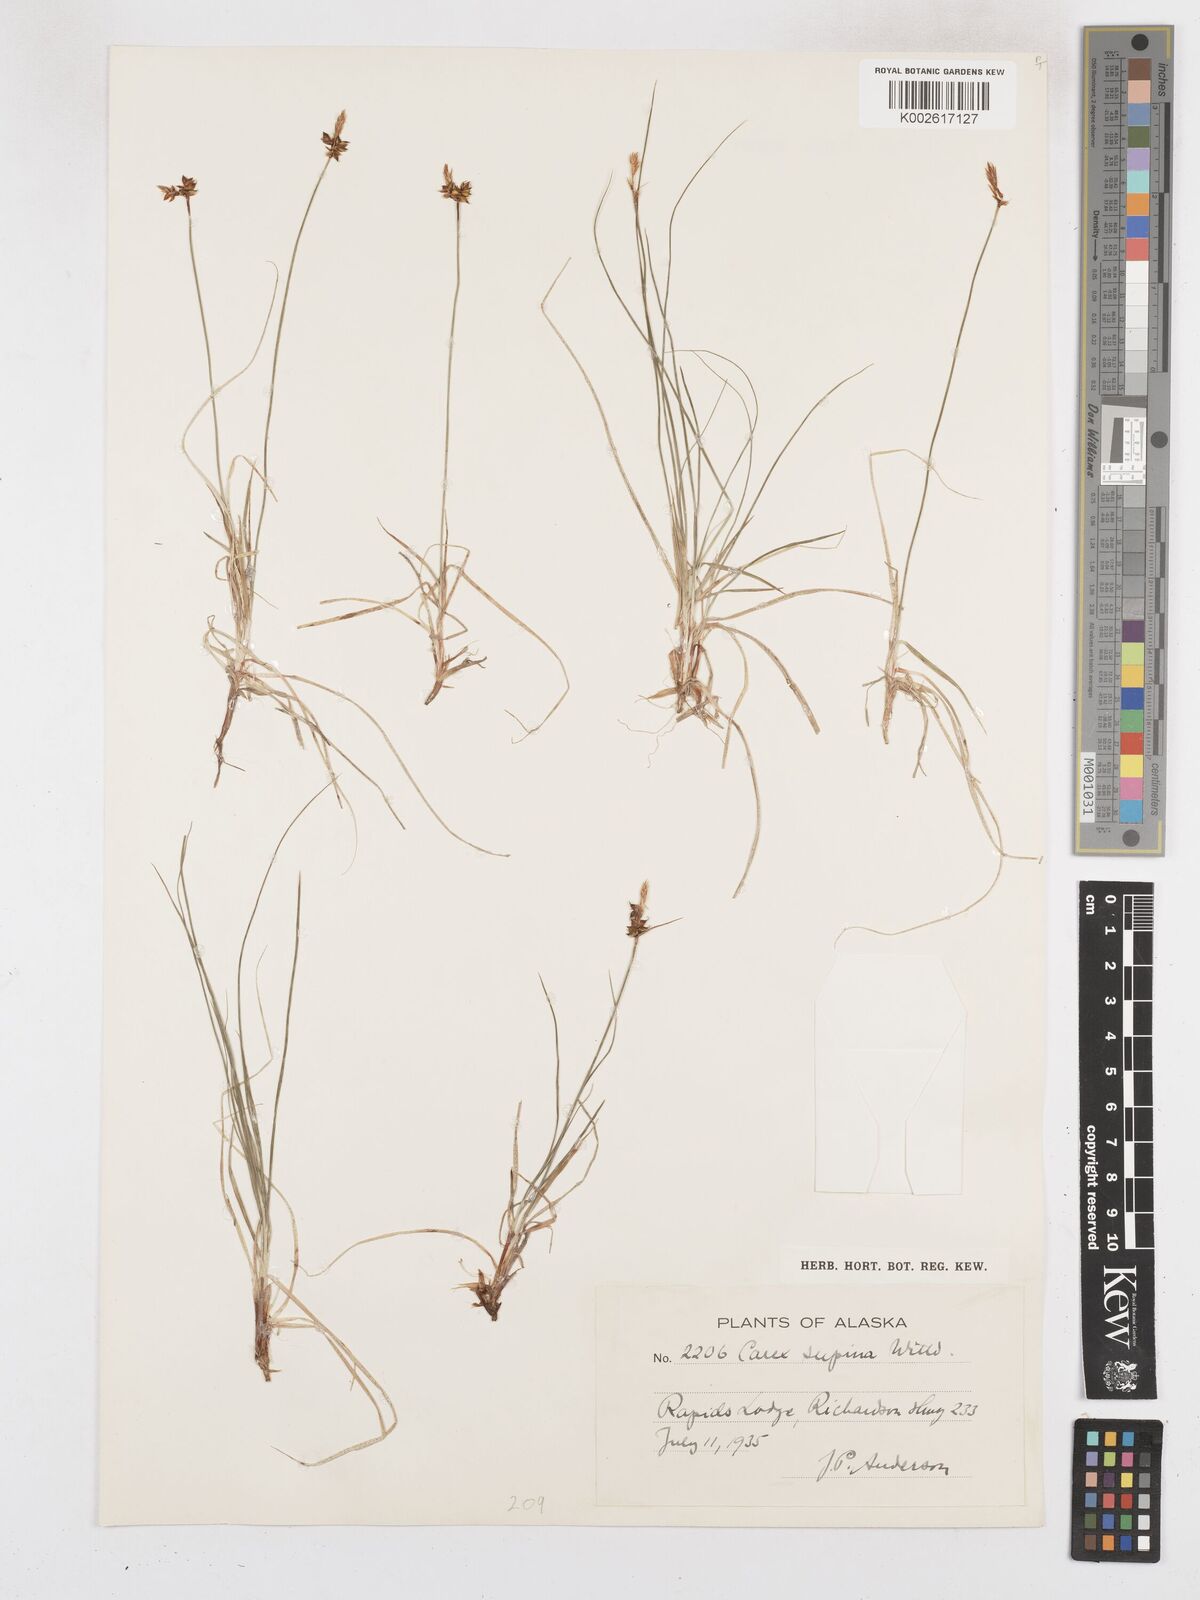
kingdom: Plantae
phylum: Tracheophyta
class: Liliopsida
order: Poales
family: Cyperaceae
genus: Carex
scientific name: Carex supina
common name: Lying-back sedge
